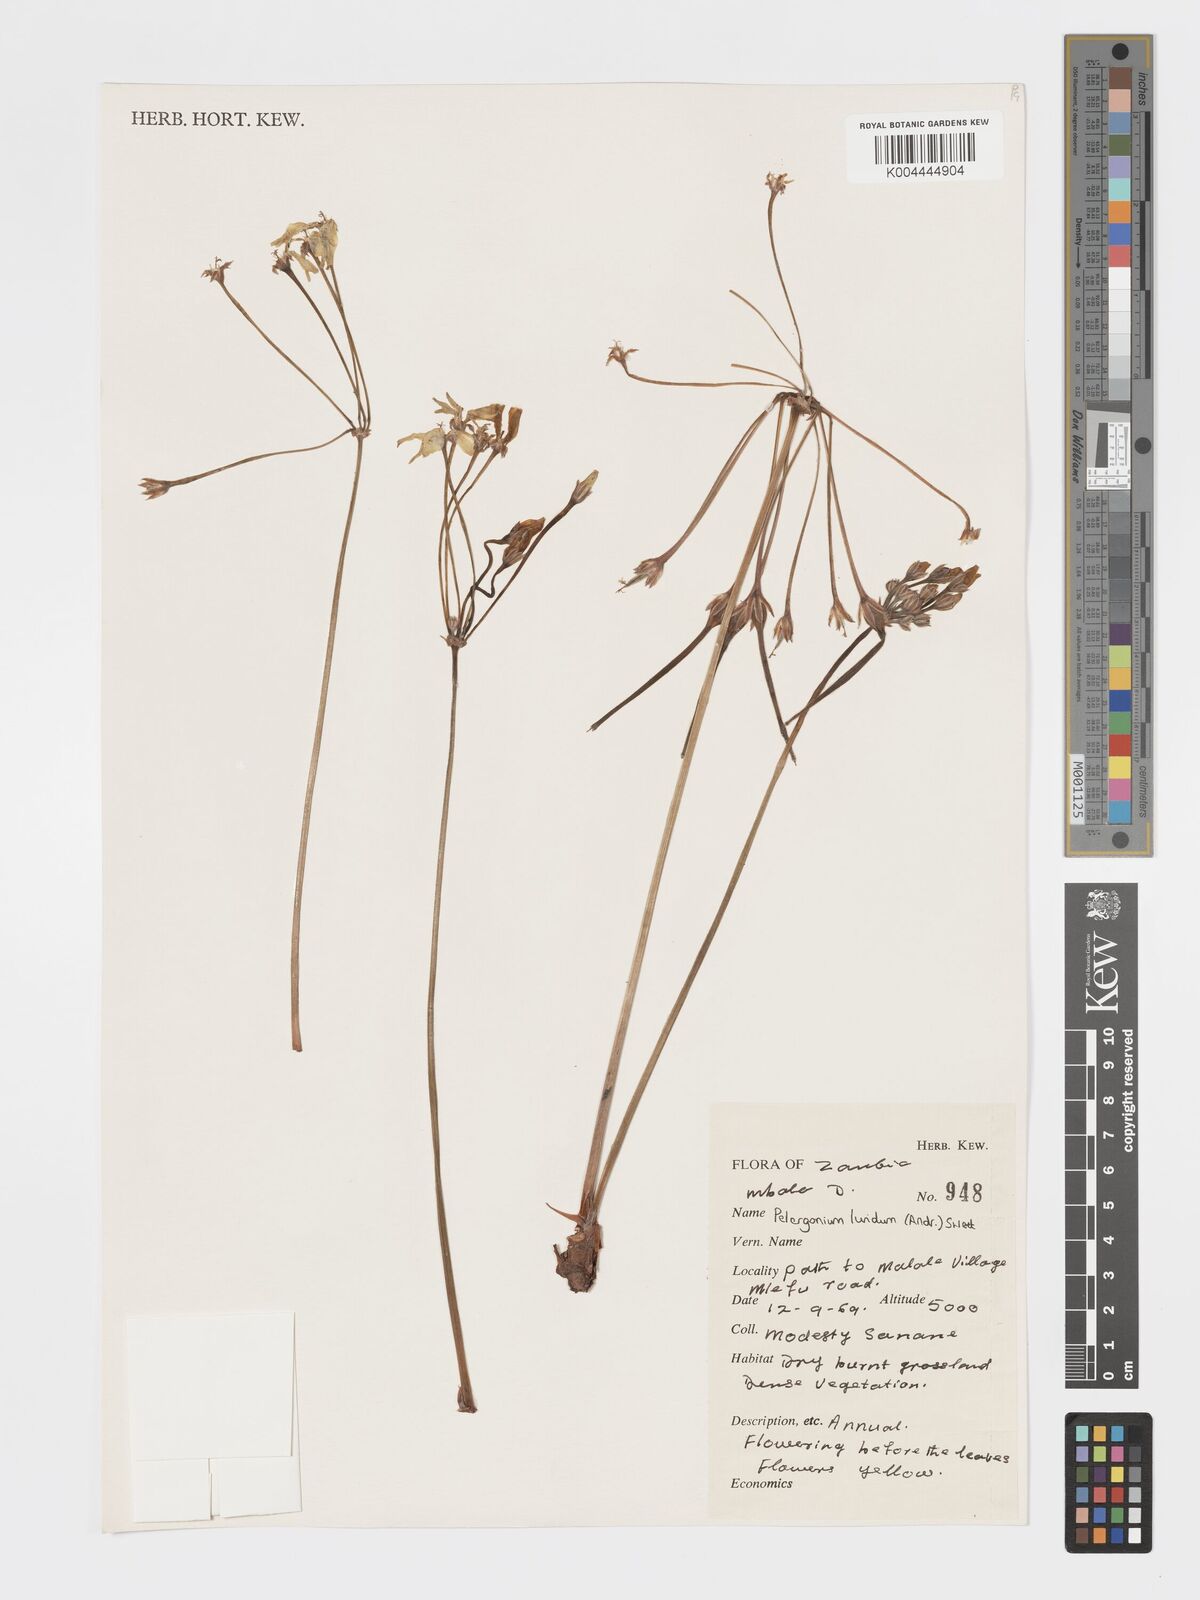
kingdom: Plantae
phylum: Tracheophyta
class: Magnoliopsida
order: Geraniales
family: Geraniaceae
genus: Pelargonium
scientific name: Pelargonium luridum
